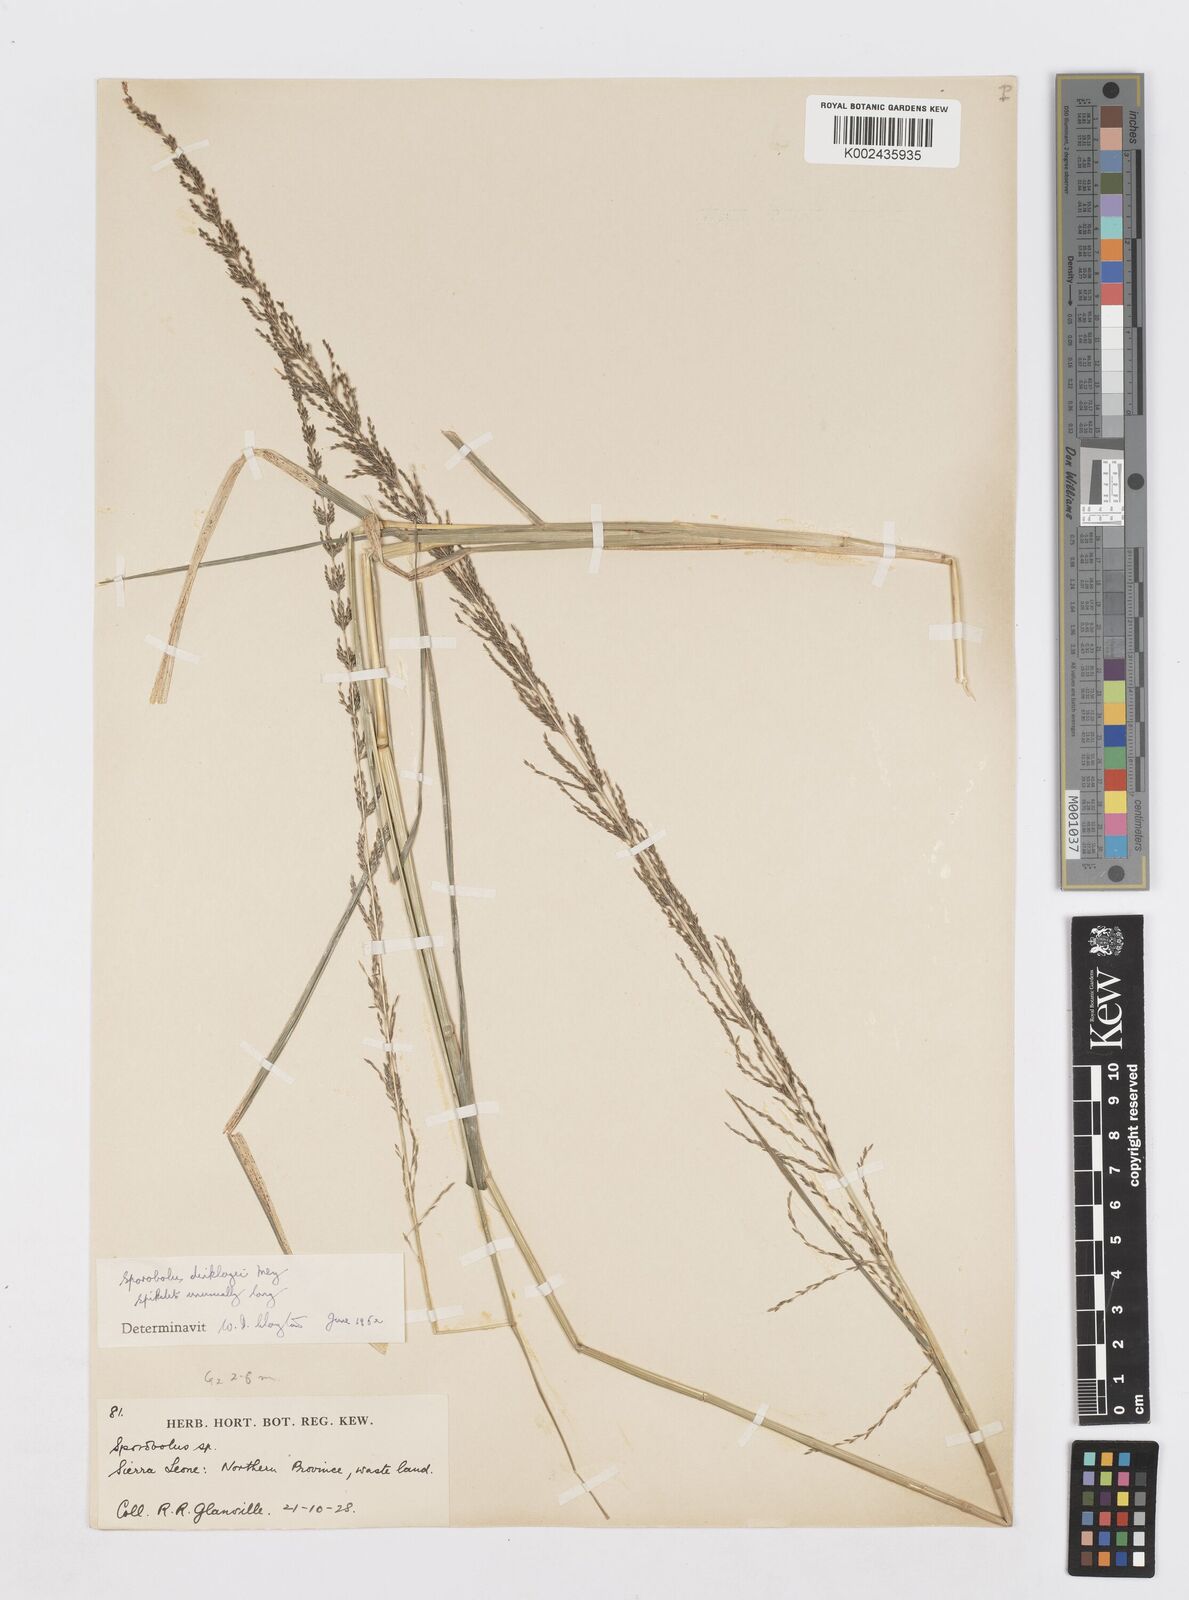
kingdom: Plantae
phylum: Tracheophyta
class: Liliopsida
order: Poales
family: Poaceae
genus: Sporobolus
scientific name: Sporobolus dinklagei
